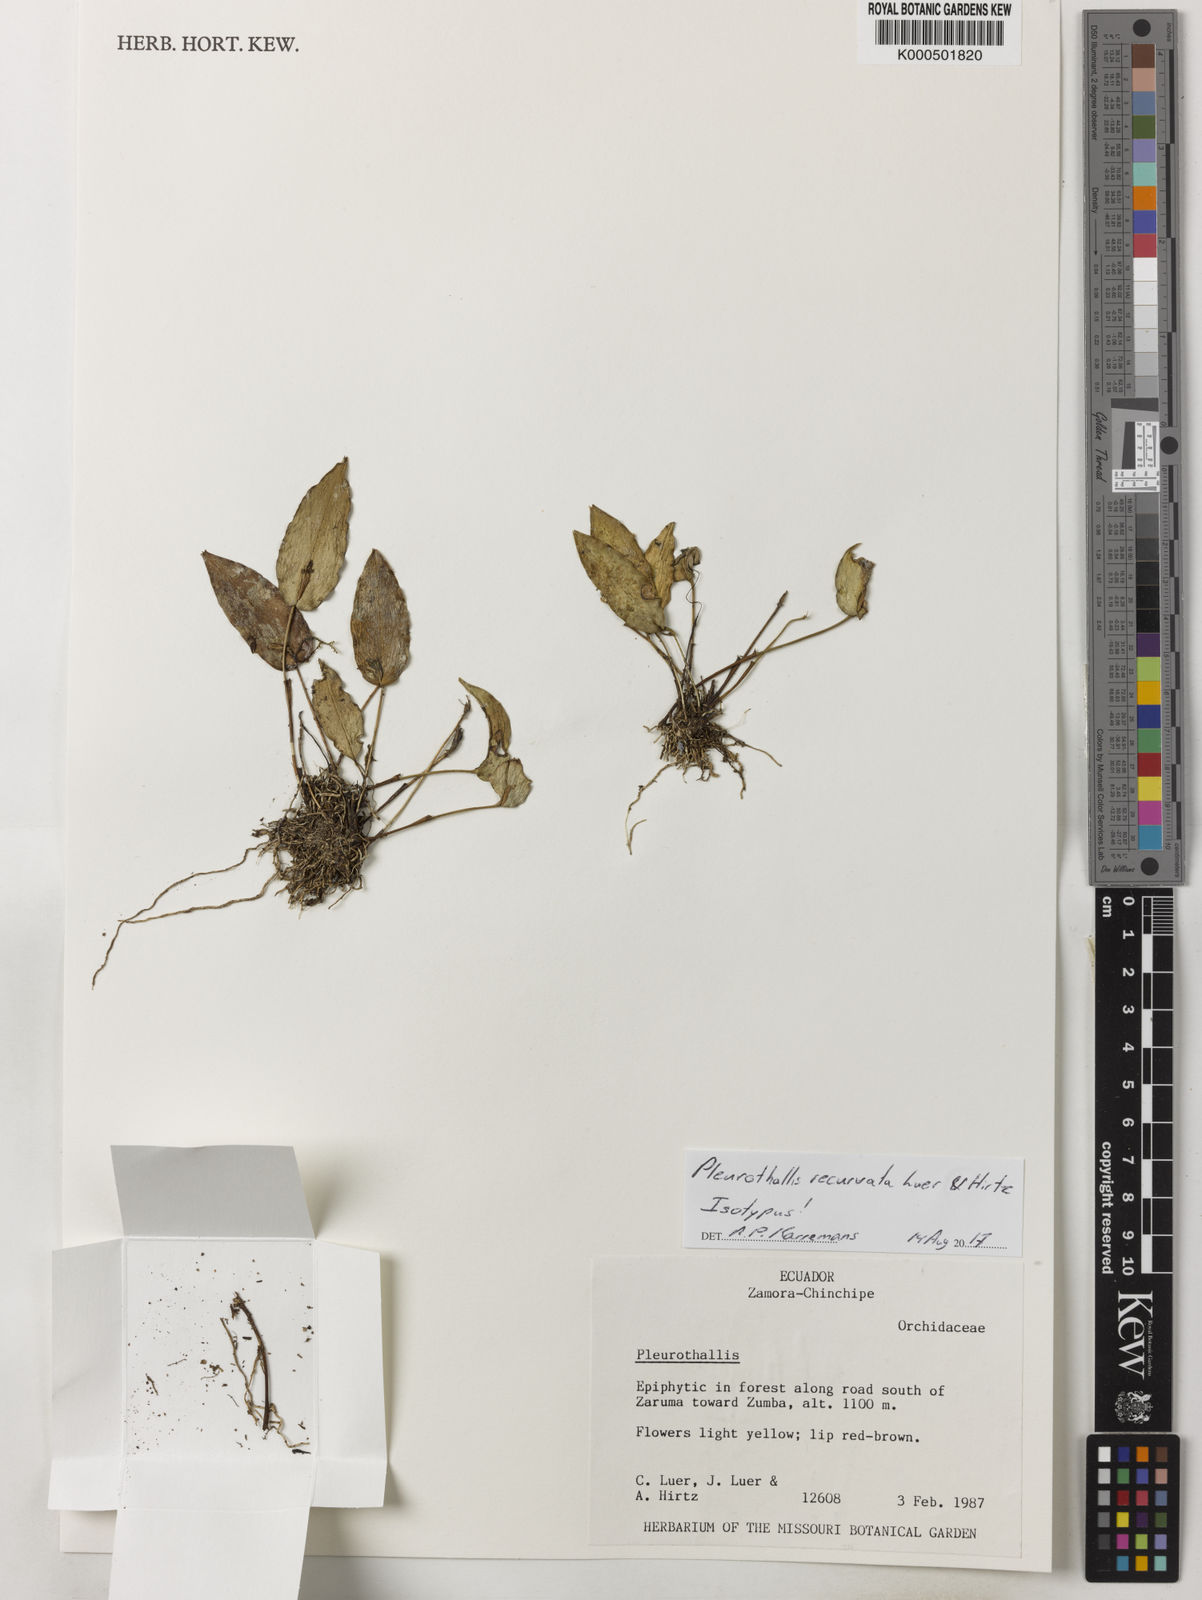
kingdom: Plantae
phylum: Tracheophyta
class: Liliopsida
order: Asparagales
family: Orchidaceae
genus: Pleurothallis
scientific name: Pleurothallis recurvata
